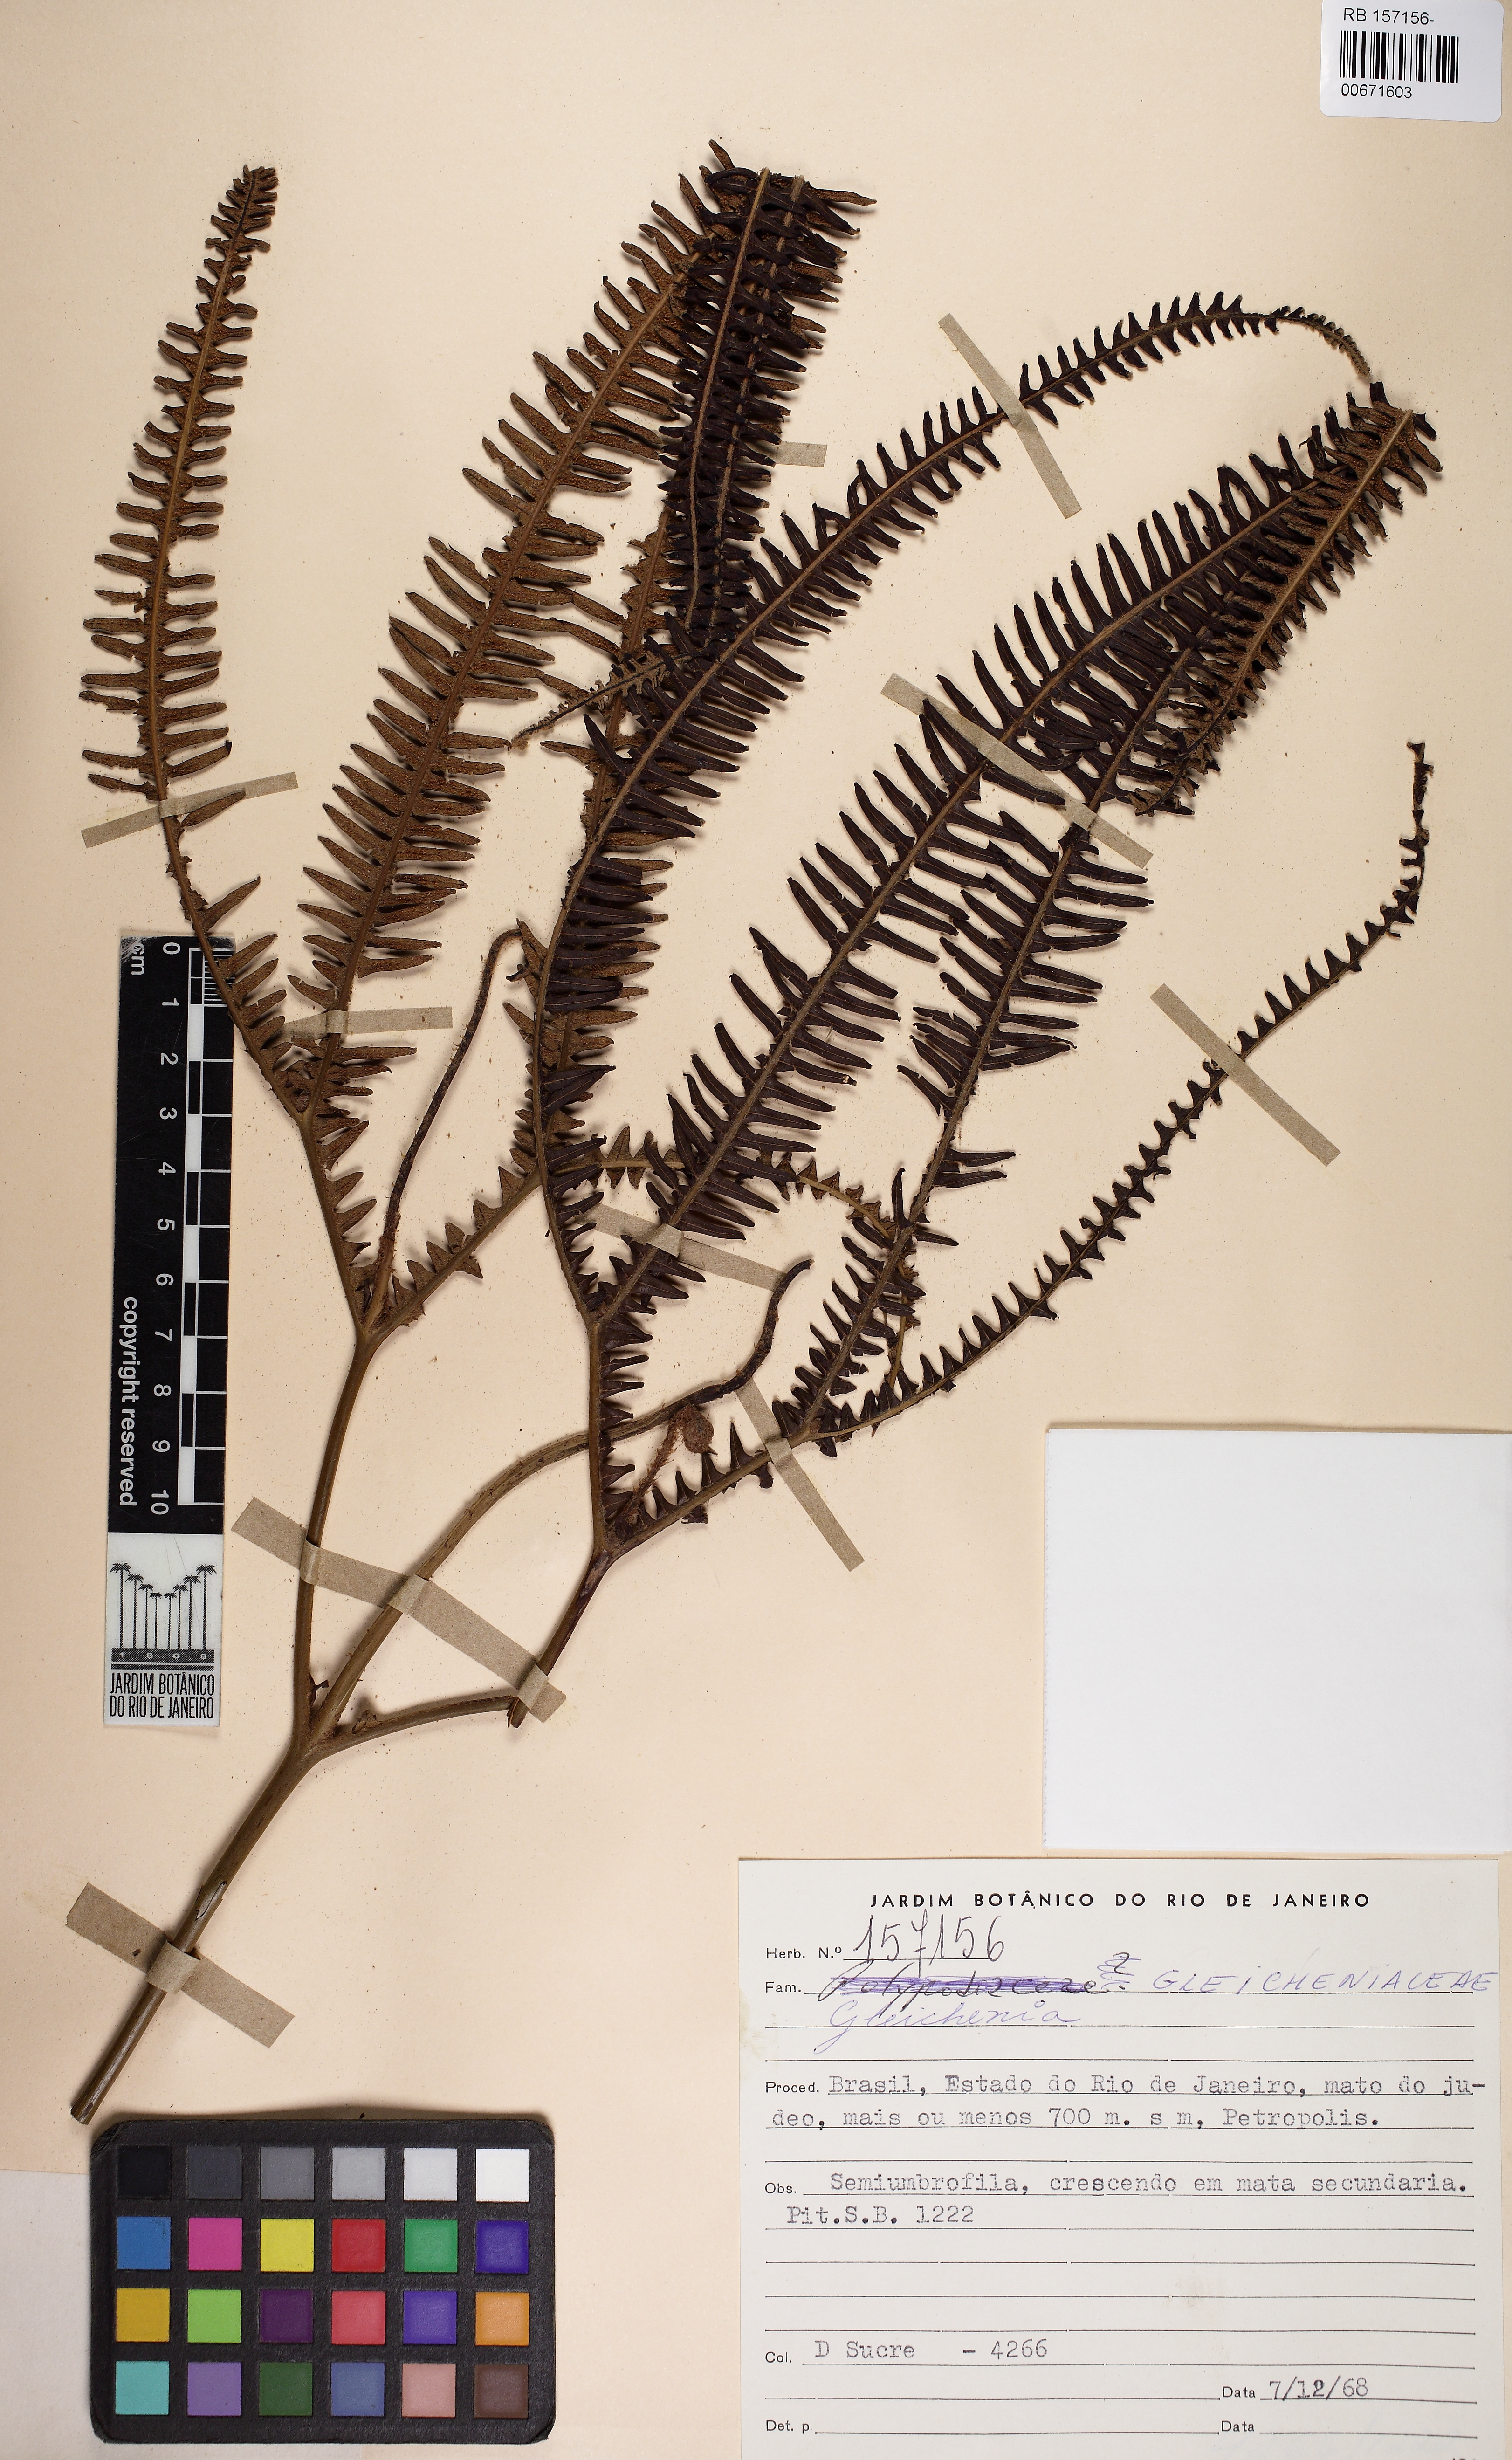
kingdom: Plantae
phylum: Tracheophyta
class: Polypodiopsida
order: Gleicheniales
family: Gleicheniaceae
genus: Sticherus
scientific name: Sticherus bifidus
